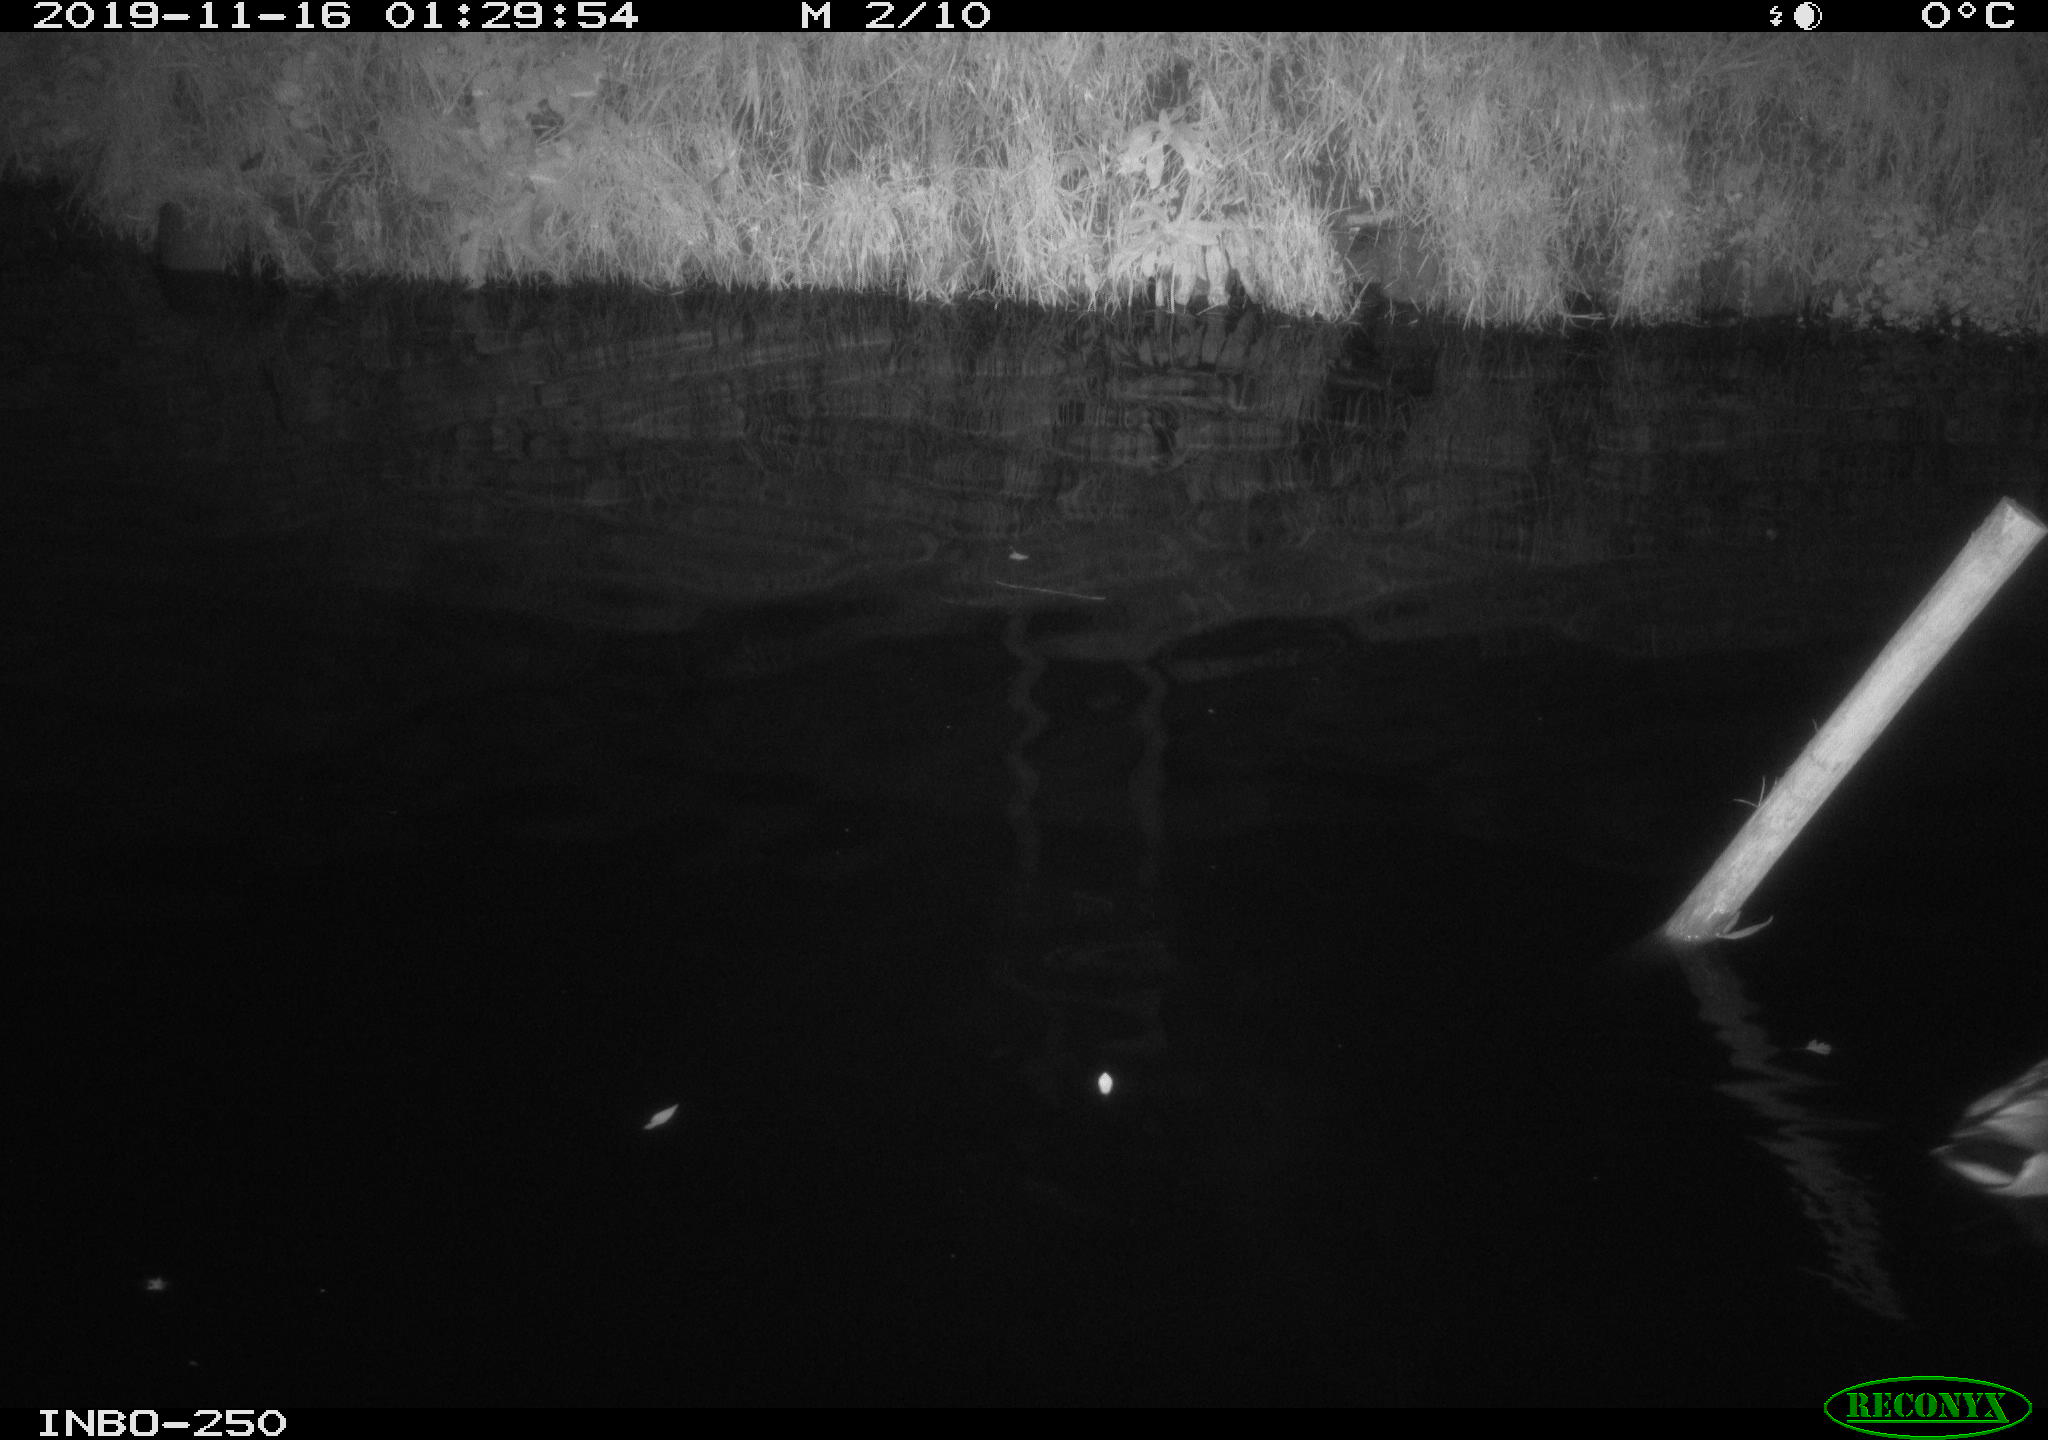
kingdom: Animalia
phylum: Chordata
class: Aves
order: Anseriformes
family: Anatidae
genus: Anas
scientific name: Anas platyrhynchos
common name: Mallard
